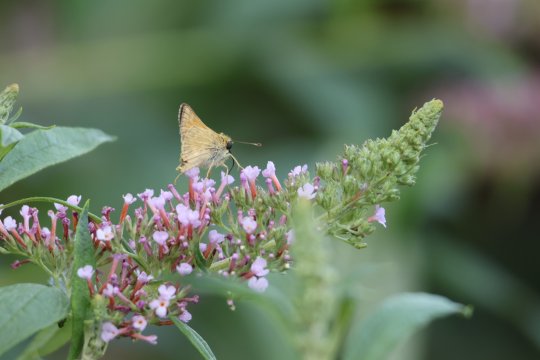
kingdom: Animalia
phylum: Arthropoda
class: Insecta
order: Lepidoptera
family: Hesperiidae
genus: Copaeodes
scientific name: Copaeodes aurantiaca
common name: Orange Skipperling
